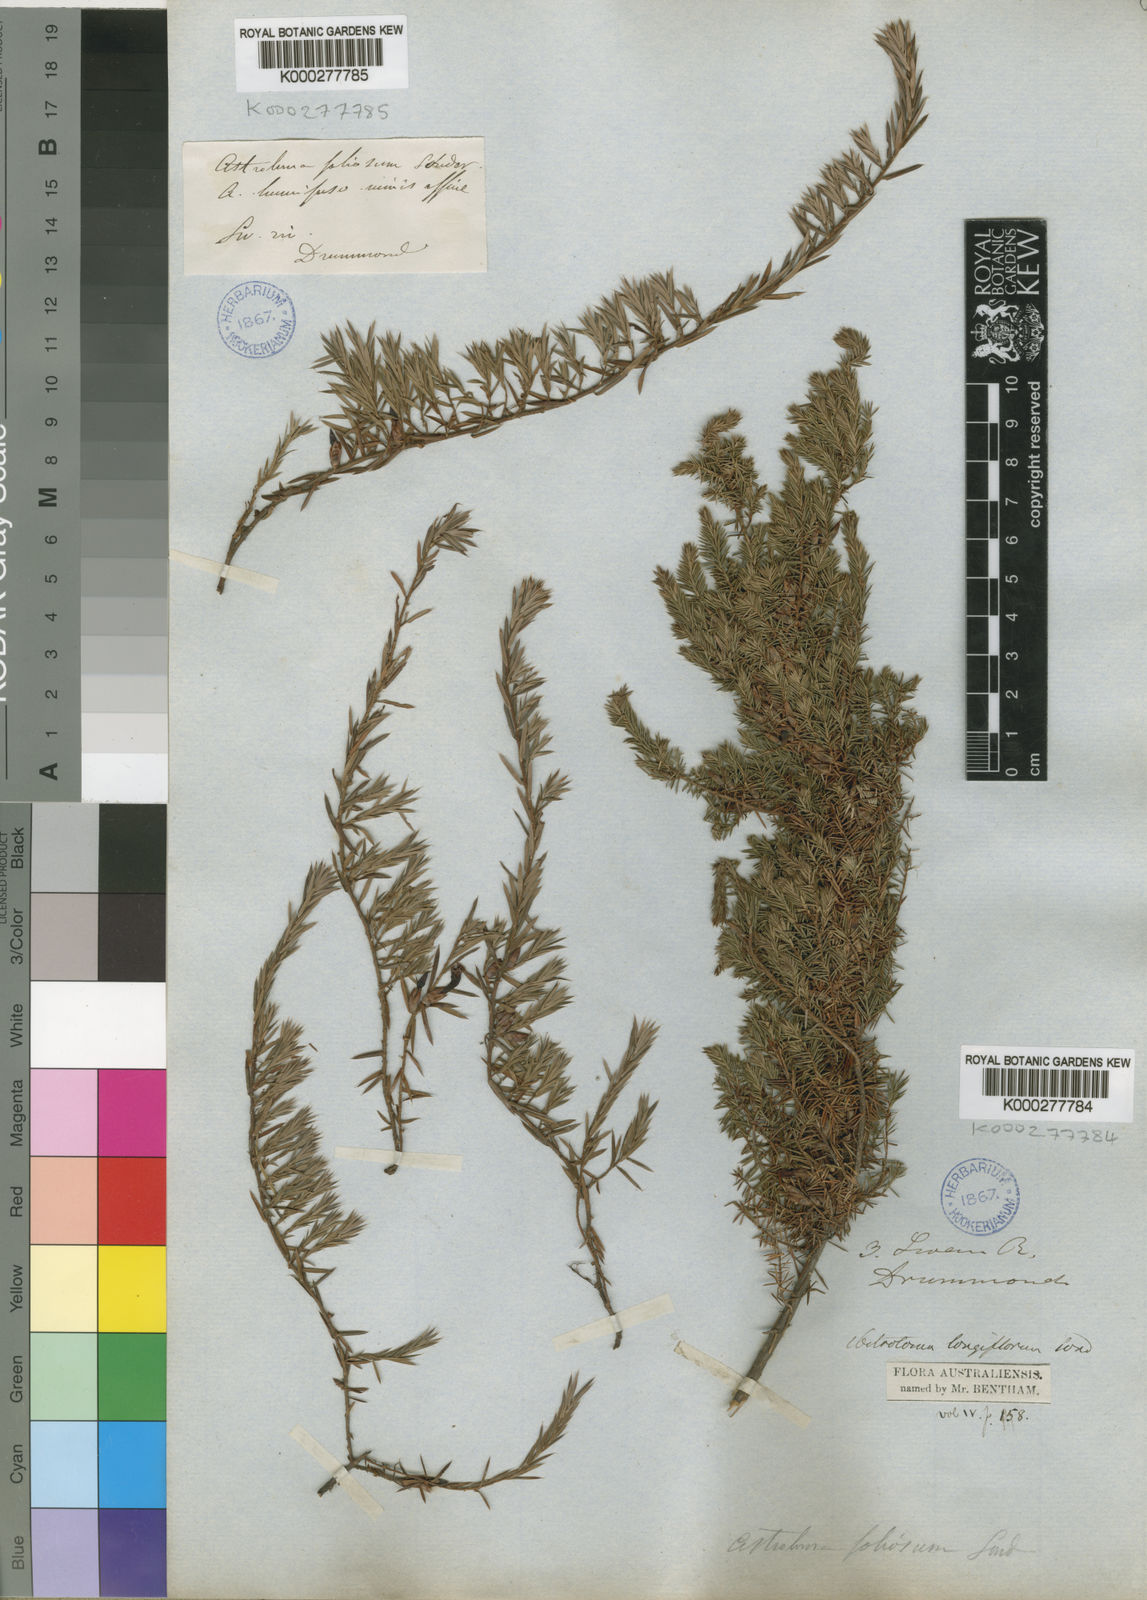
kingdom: Plantae
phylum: Tracheophyta
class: Magnoliopsida
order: Ericales
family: Ericaceae
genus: Styphelia
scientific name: Styphelia discolor
